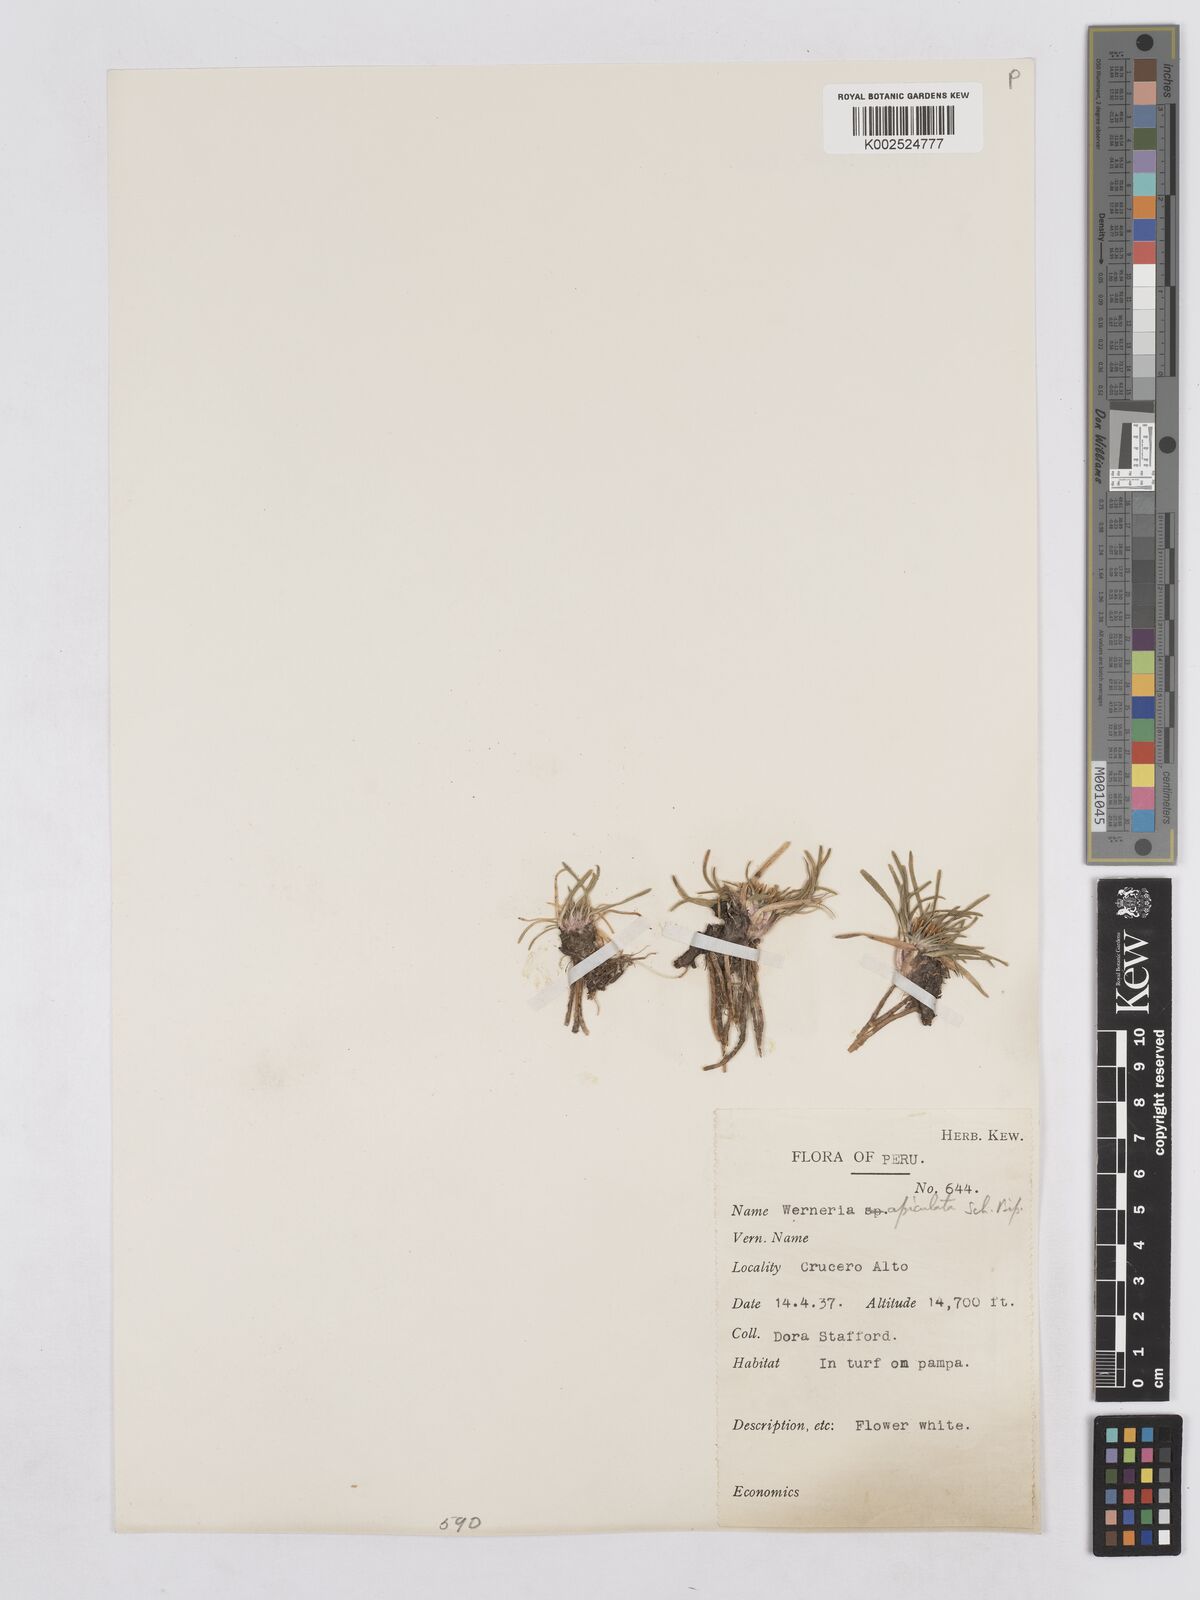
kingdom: Plantae
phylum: Tracheophyta
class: Magnoliopsida
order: Asterales
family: Asteraceae
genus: Rockhausenia
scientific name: Rockhausenia apiculata
